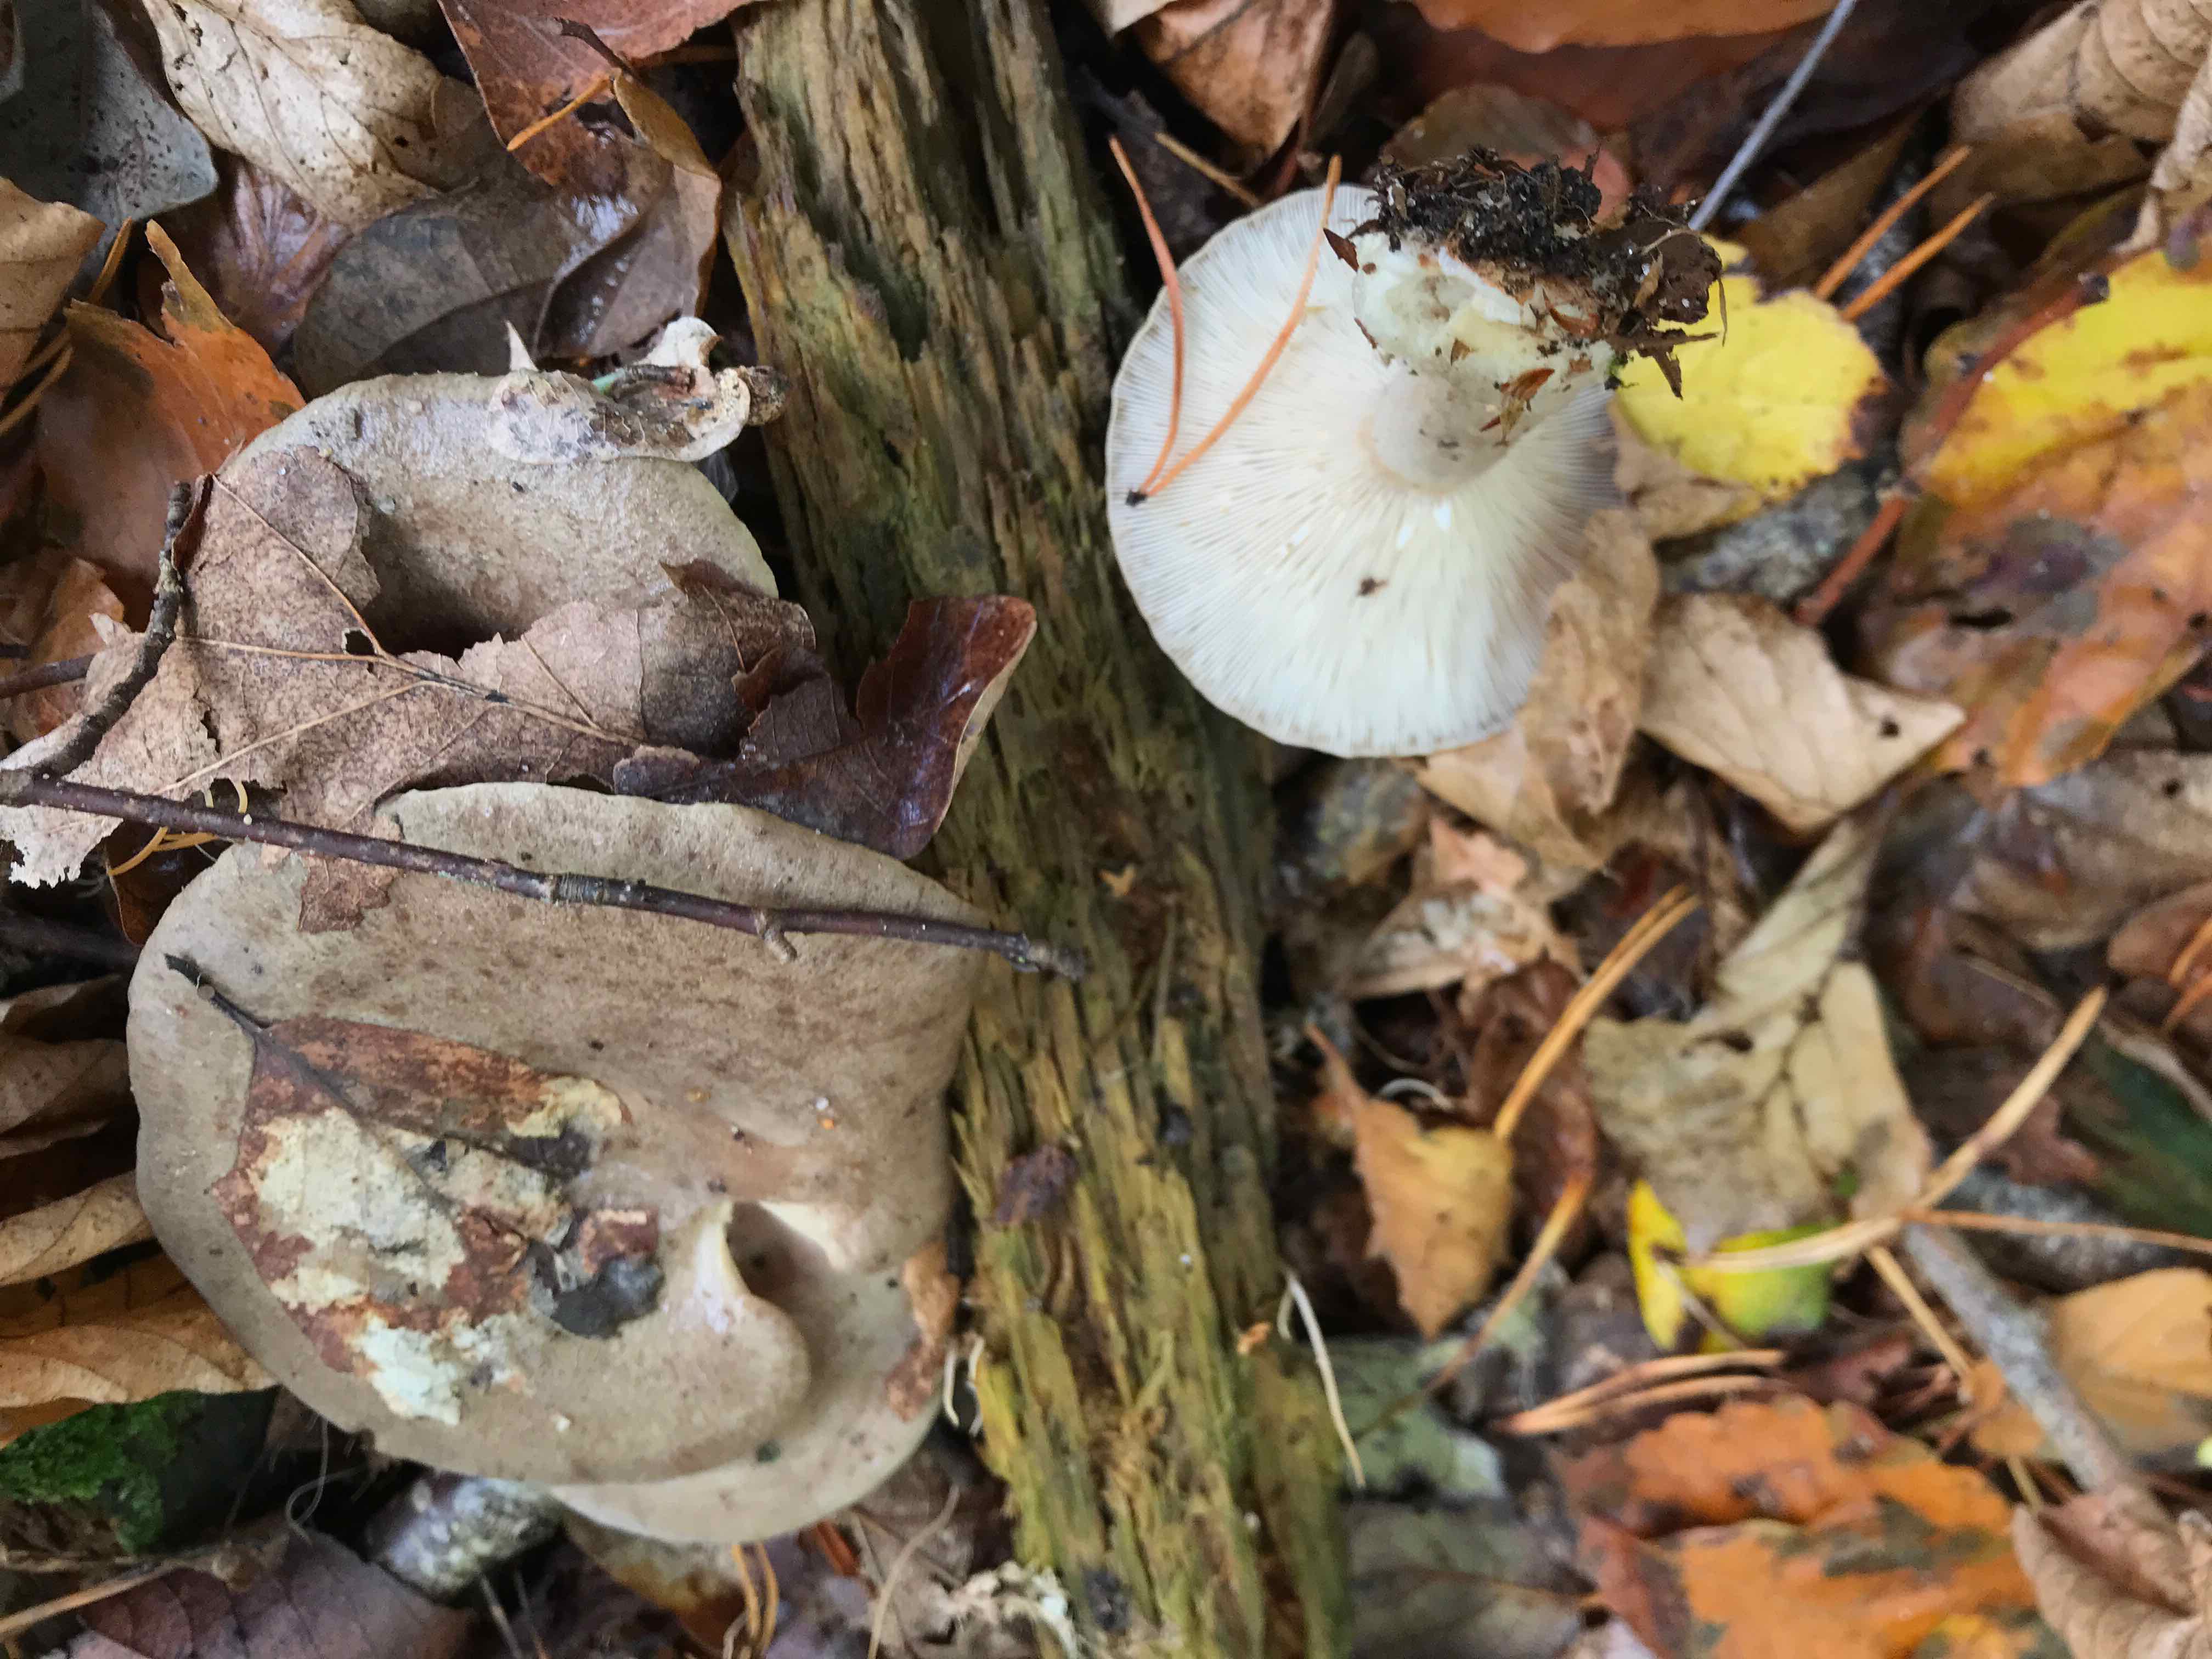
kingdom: Fungi
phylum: Basidiomycota
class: Agaricomycetes
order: Russulales
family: Russulaceae
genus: Lactarius
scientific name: Lactarius blennius
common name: dråbeplettet mælkehat
